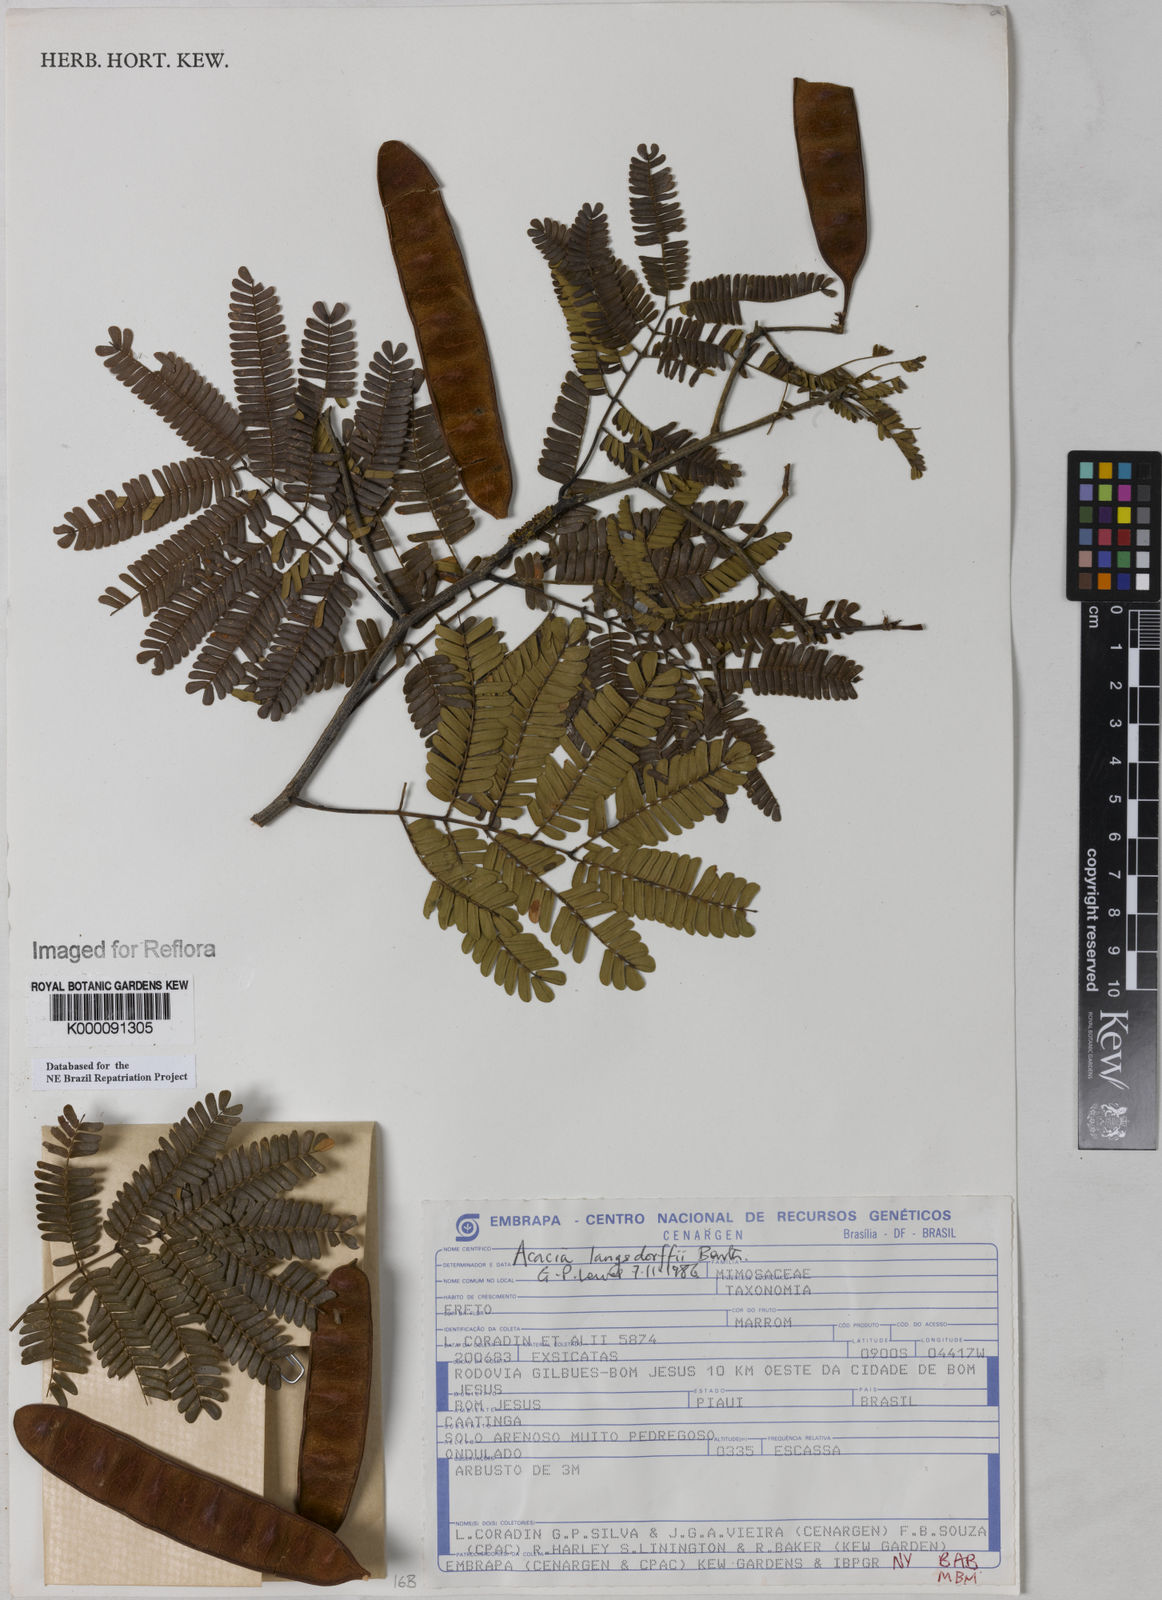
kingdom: Plantae
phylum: Tracheophyta
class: Magnoliopsida
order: Fabales
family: Fabaceae
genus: Senegalia
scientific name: Senegalia langsdorffii
